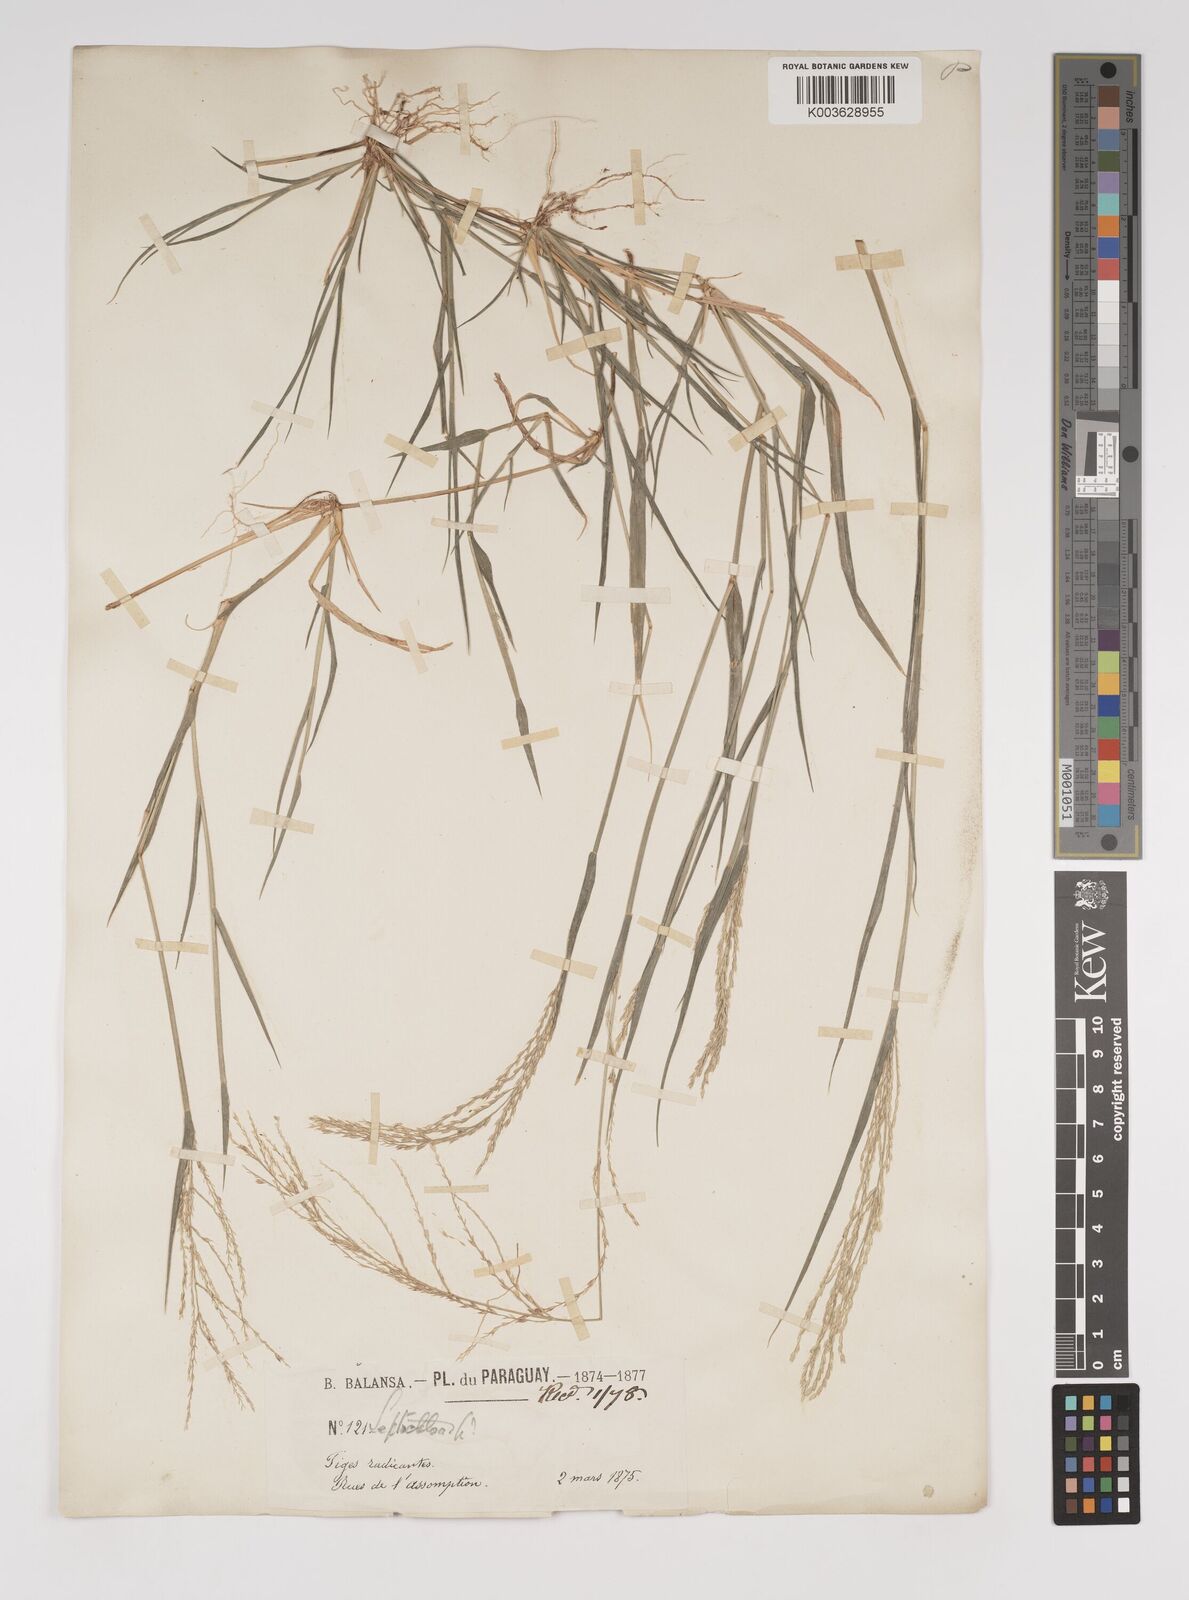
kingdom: Plantae
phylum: Tracheophyta
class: Liliopsida
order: Poales
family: Poaceae
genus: Leptochloa
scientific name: Leptochloa virgata
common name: Tropical sprangletop
